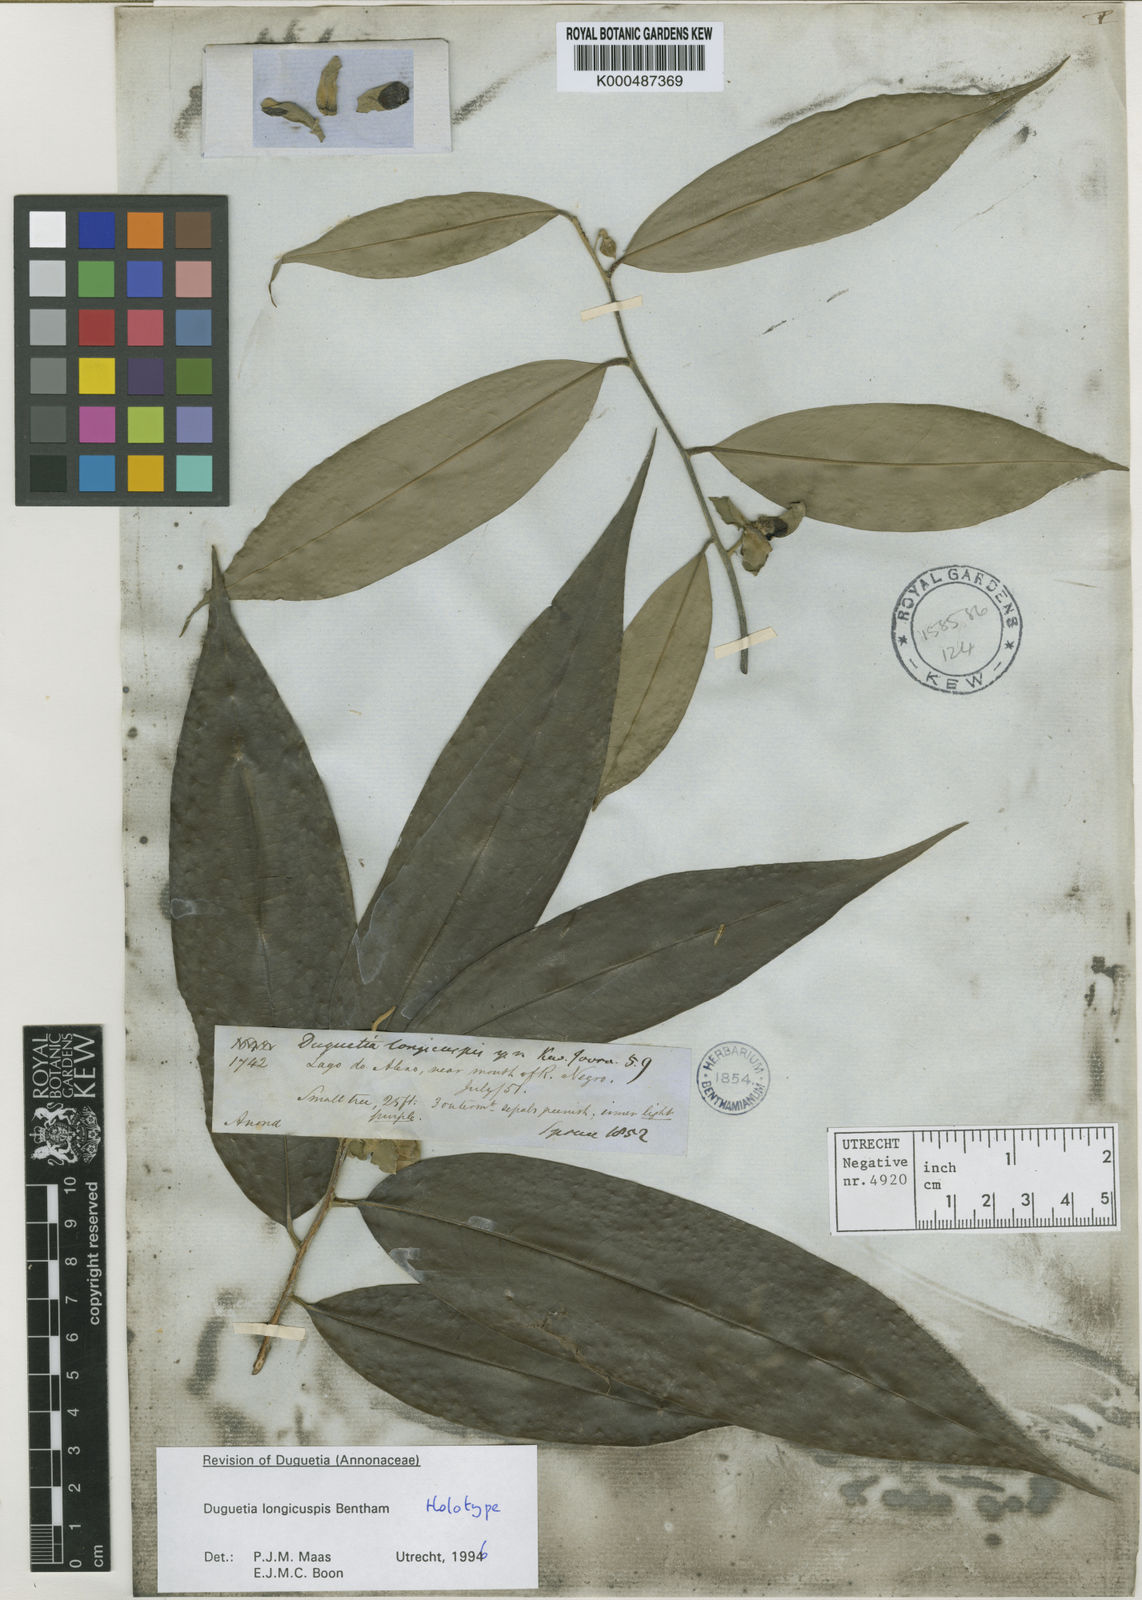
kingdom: Plantae
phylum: Tracheophyta
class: Magnoliopsida
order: Magnoliales
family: Annonaceae
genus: Duguetia
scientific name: Duguetia longicuspis
